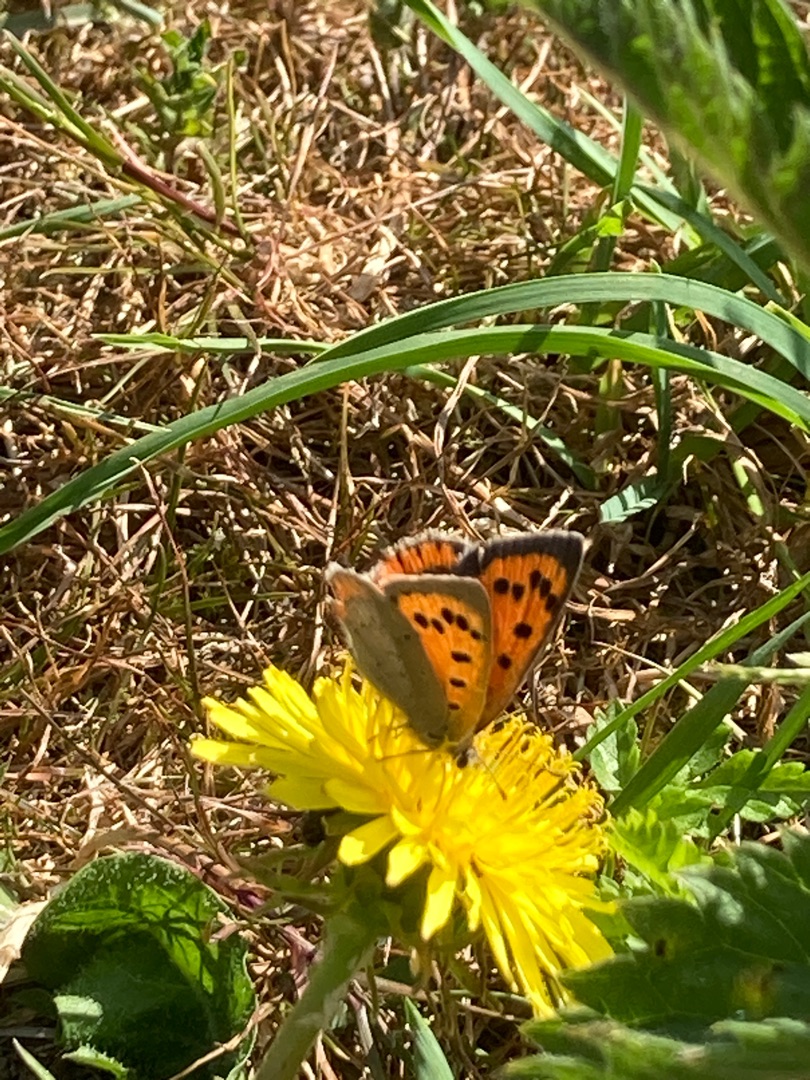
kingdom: Animalia
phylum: Arthropoda
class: Insecta
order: Lepidoptera
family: Lycaenidae
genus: Lycaena
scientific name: Lycaena phlaeas
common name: Lille ildfugl
